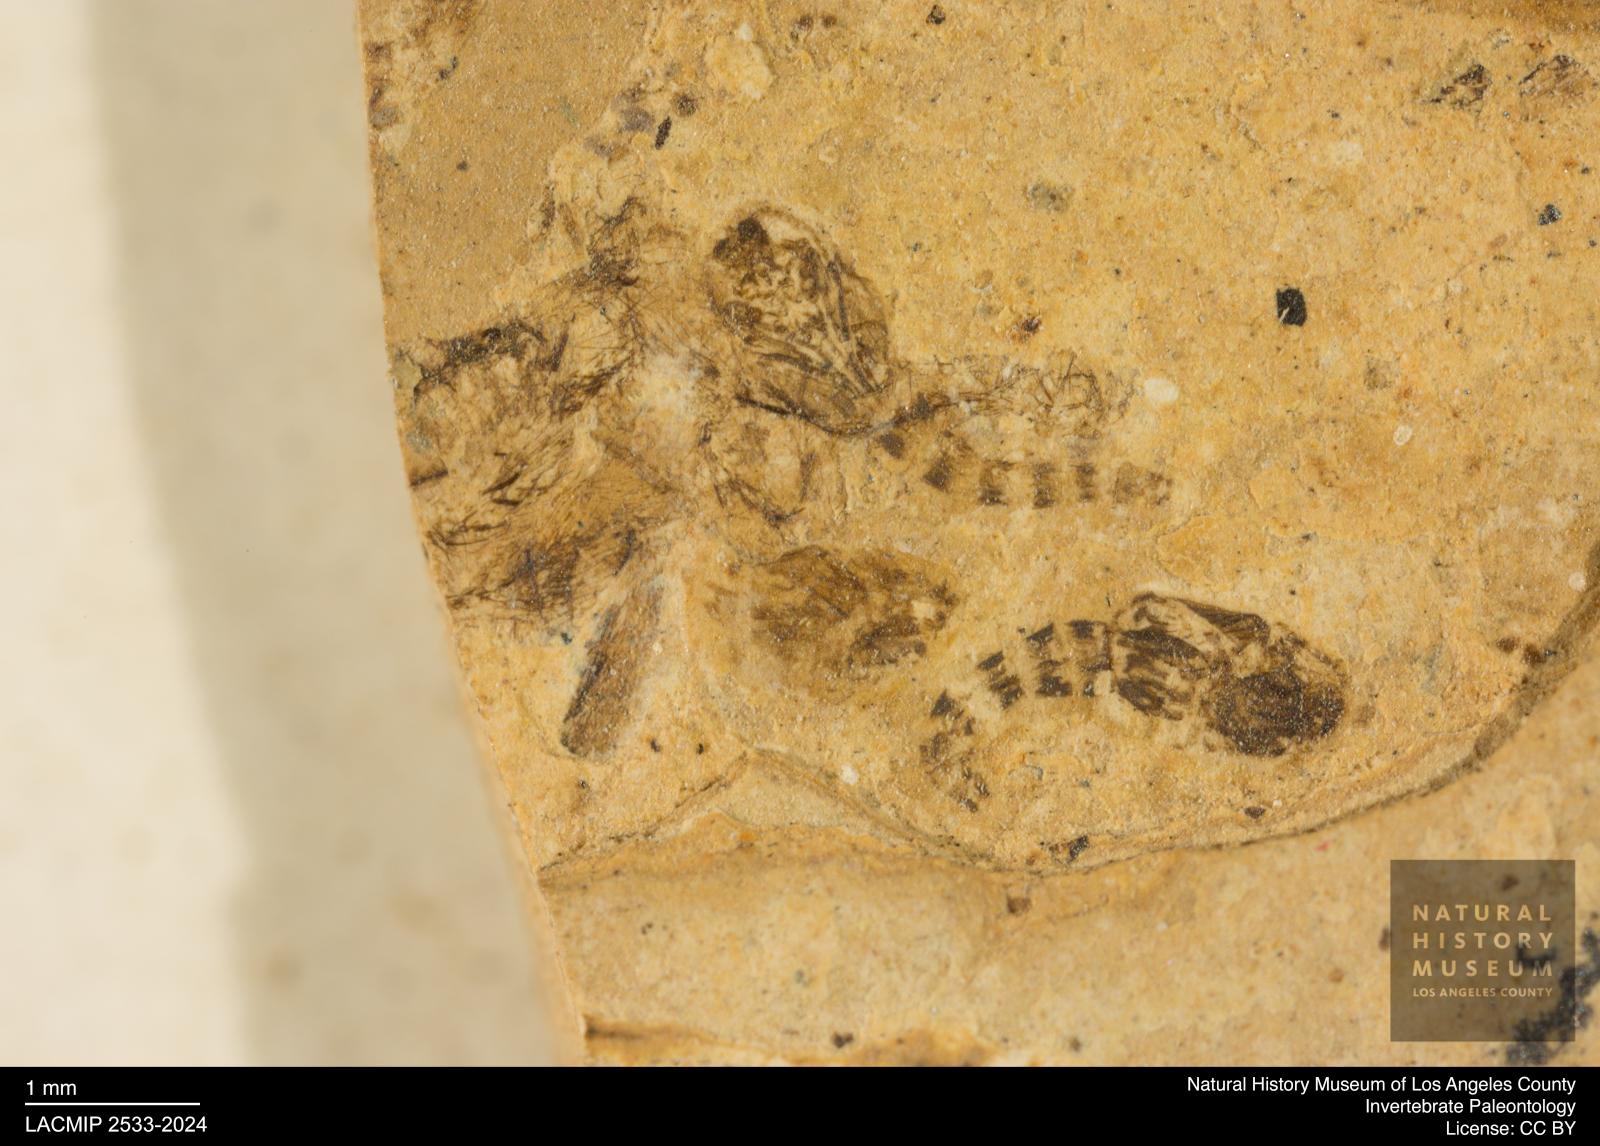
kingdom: Animalia
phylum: Arthropoda
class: Insecta
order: Diptera
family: Ceratopogonidae
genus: Ceratopogon
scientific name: Ceratopogon
